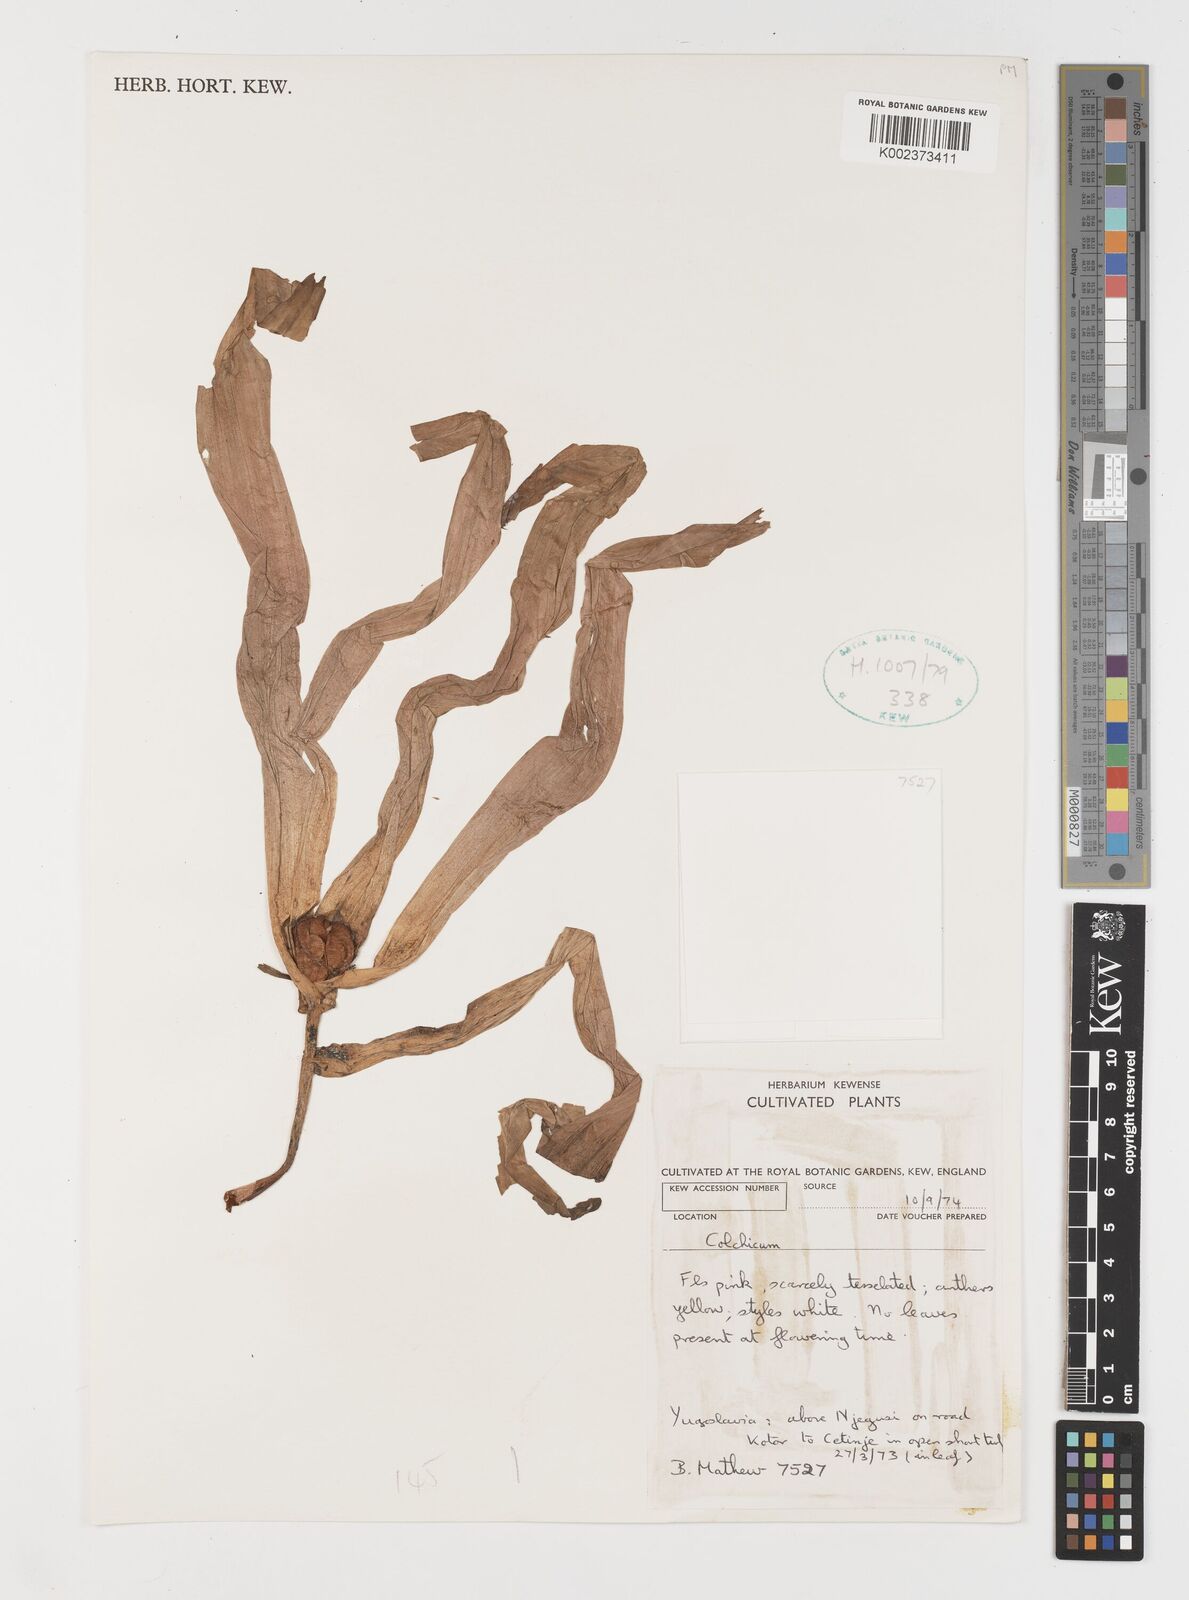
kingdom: Plantae
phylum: Tracheophyta
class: Liliopsida
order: Liliales
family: Colchicaceae
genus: Colchicum
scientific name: Colchicum
